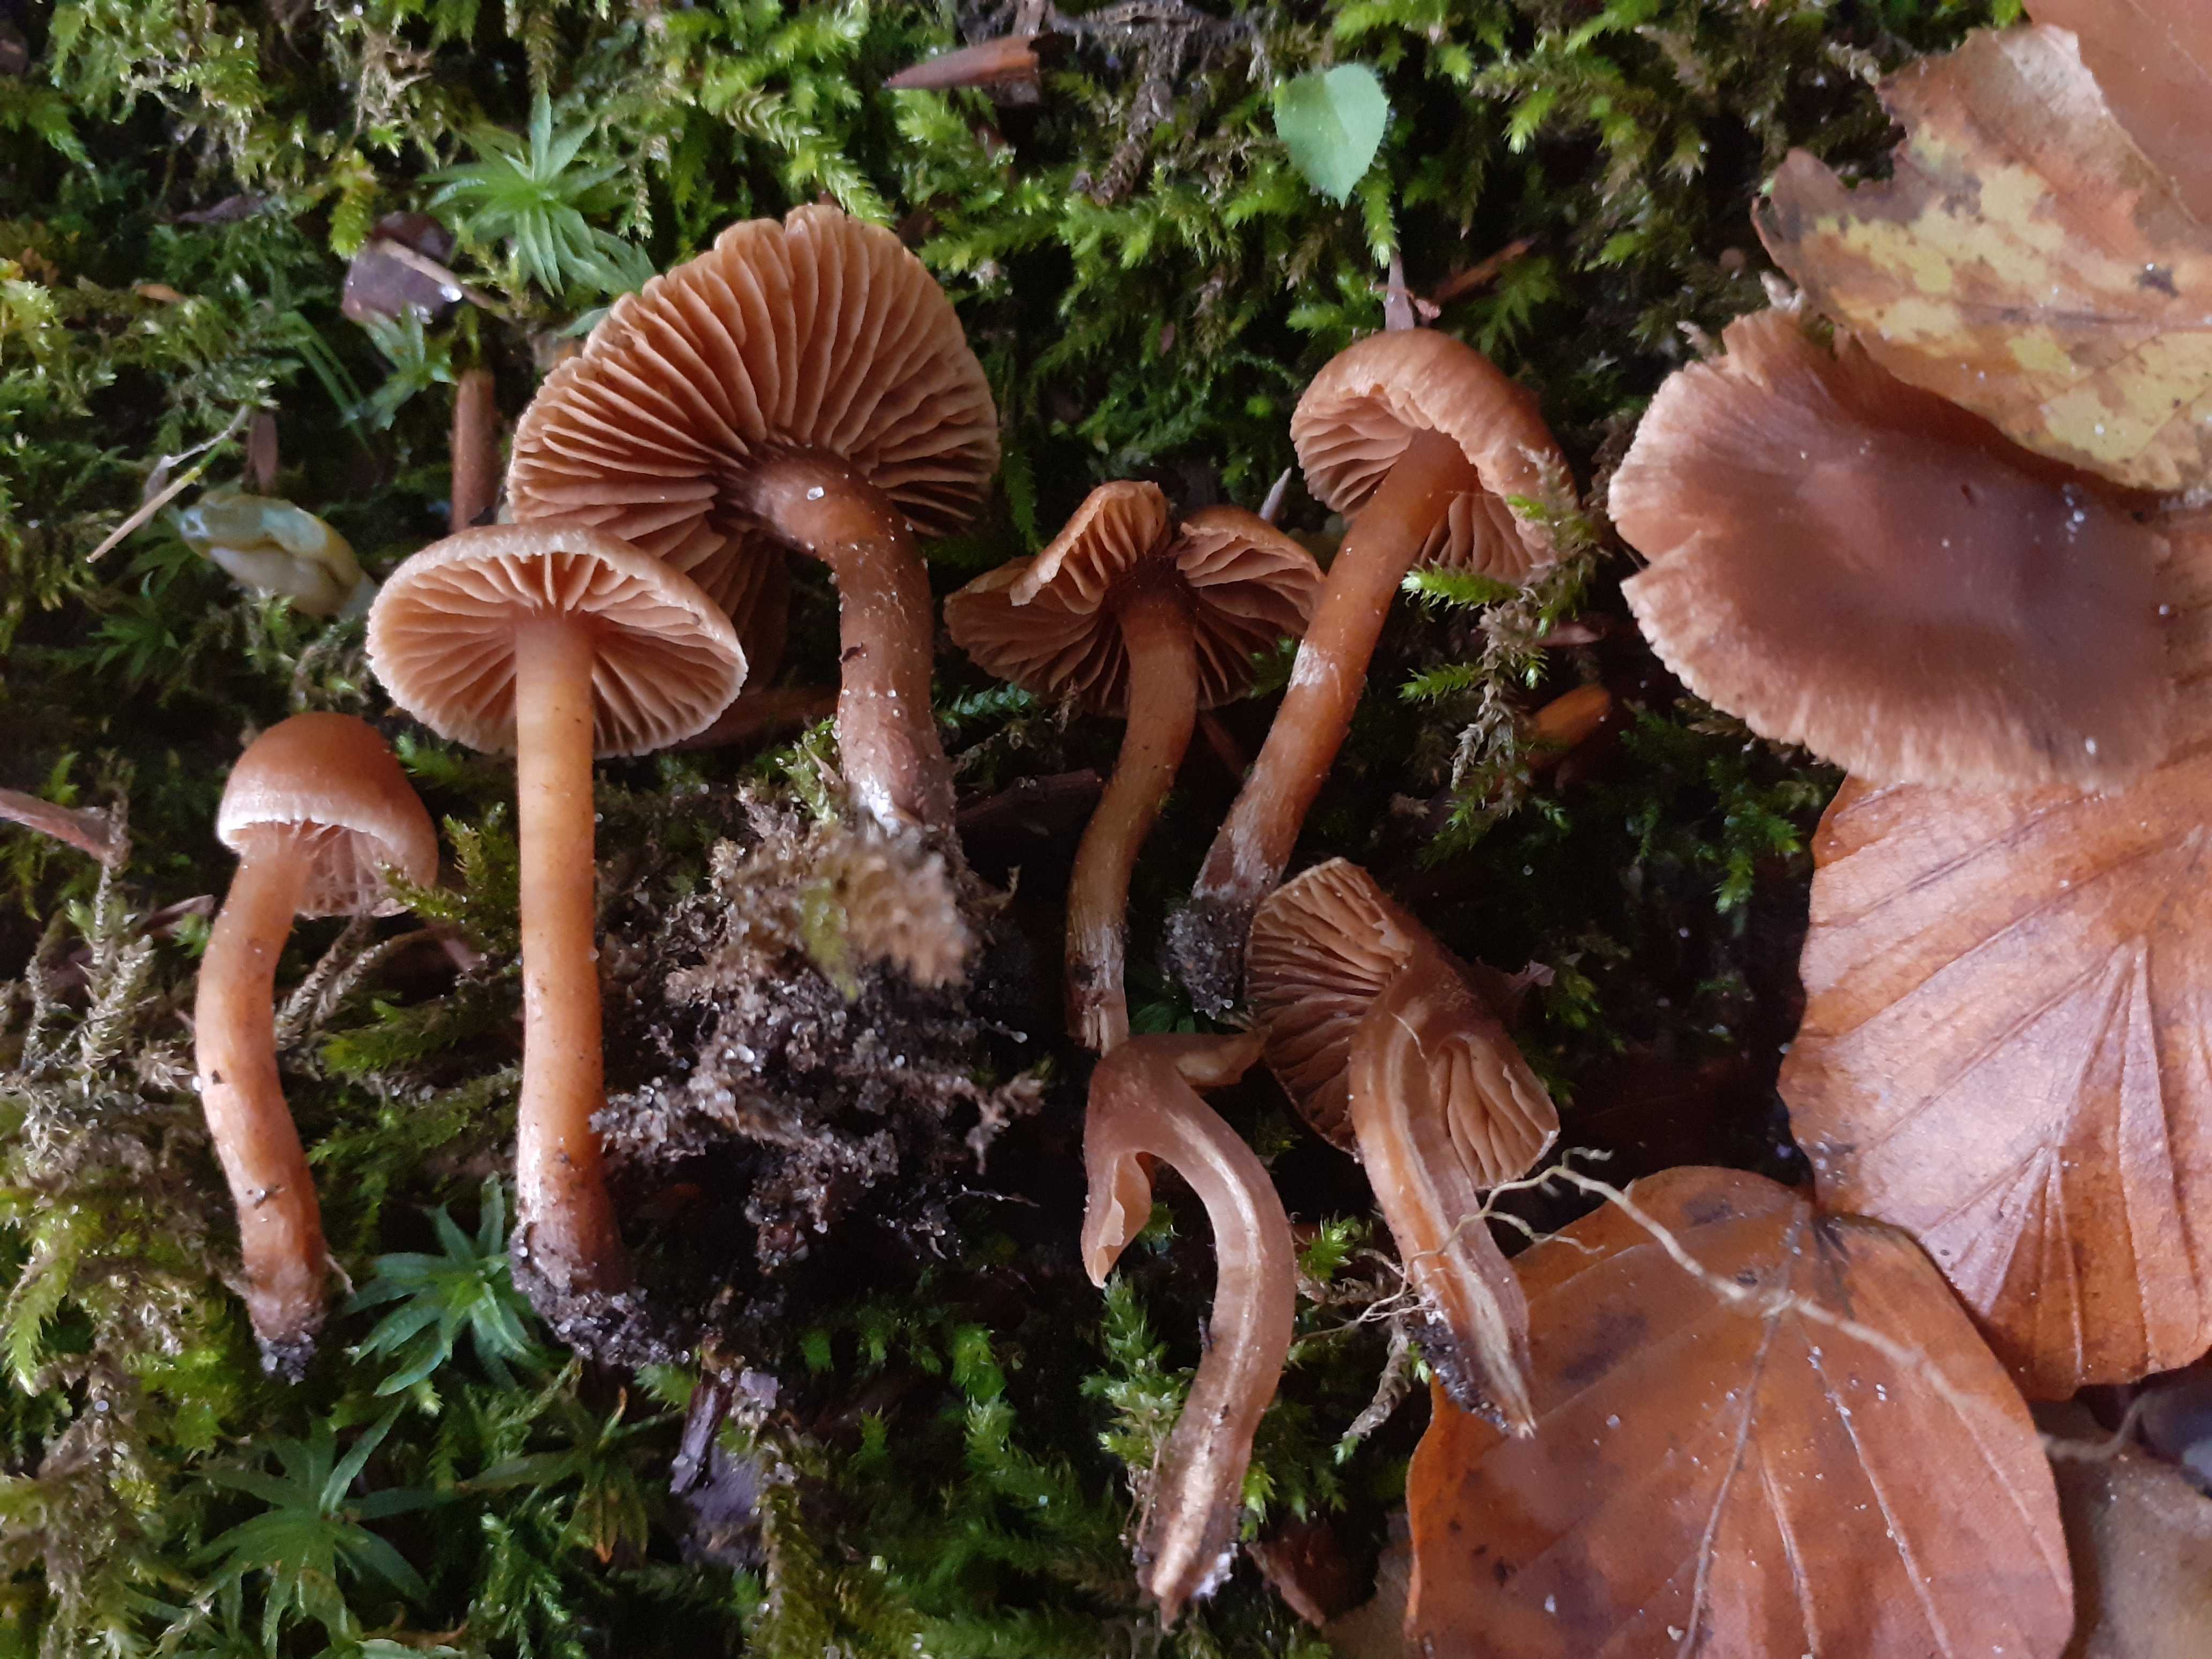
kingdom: Fungi
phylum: Basidiomycota
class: Agaricomycetes
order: Agaricales
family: Cortinariaceae
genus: Cortinarius
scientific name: Cortinarius elaphinicolor
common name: glat slørhat
